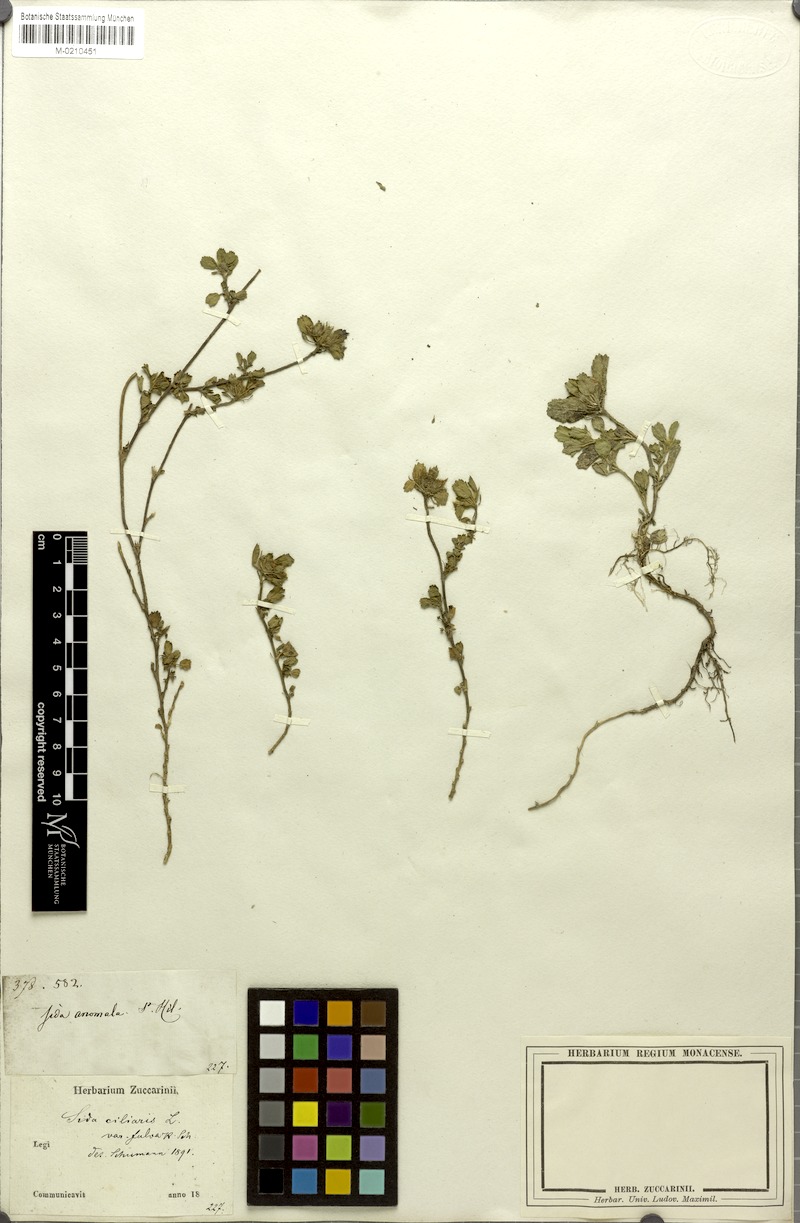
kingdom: Plantae
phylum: Tracheophyta
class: Magnoliopsida
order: Malvales
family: Malvaceae
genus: Sida
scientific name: Sida ciliaris
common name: Bracted fanpetals
